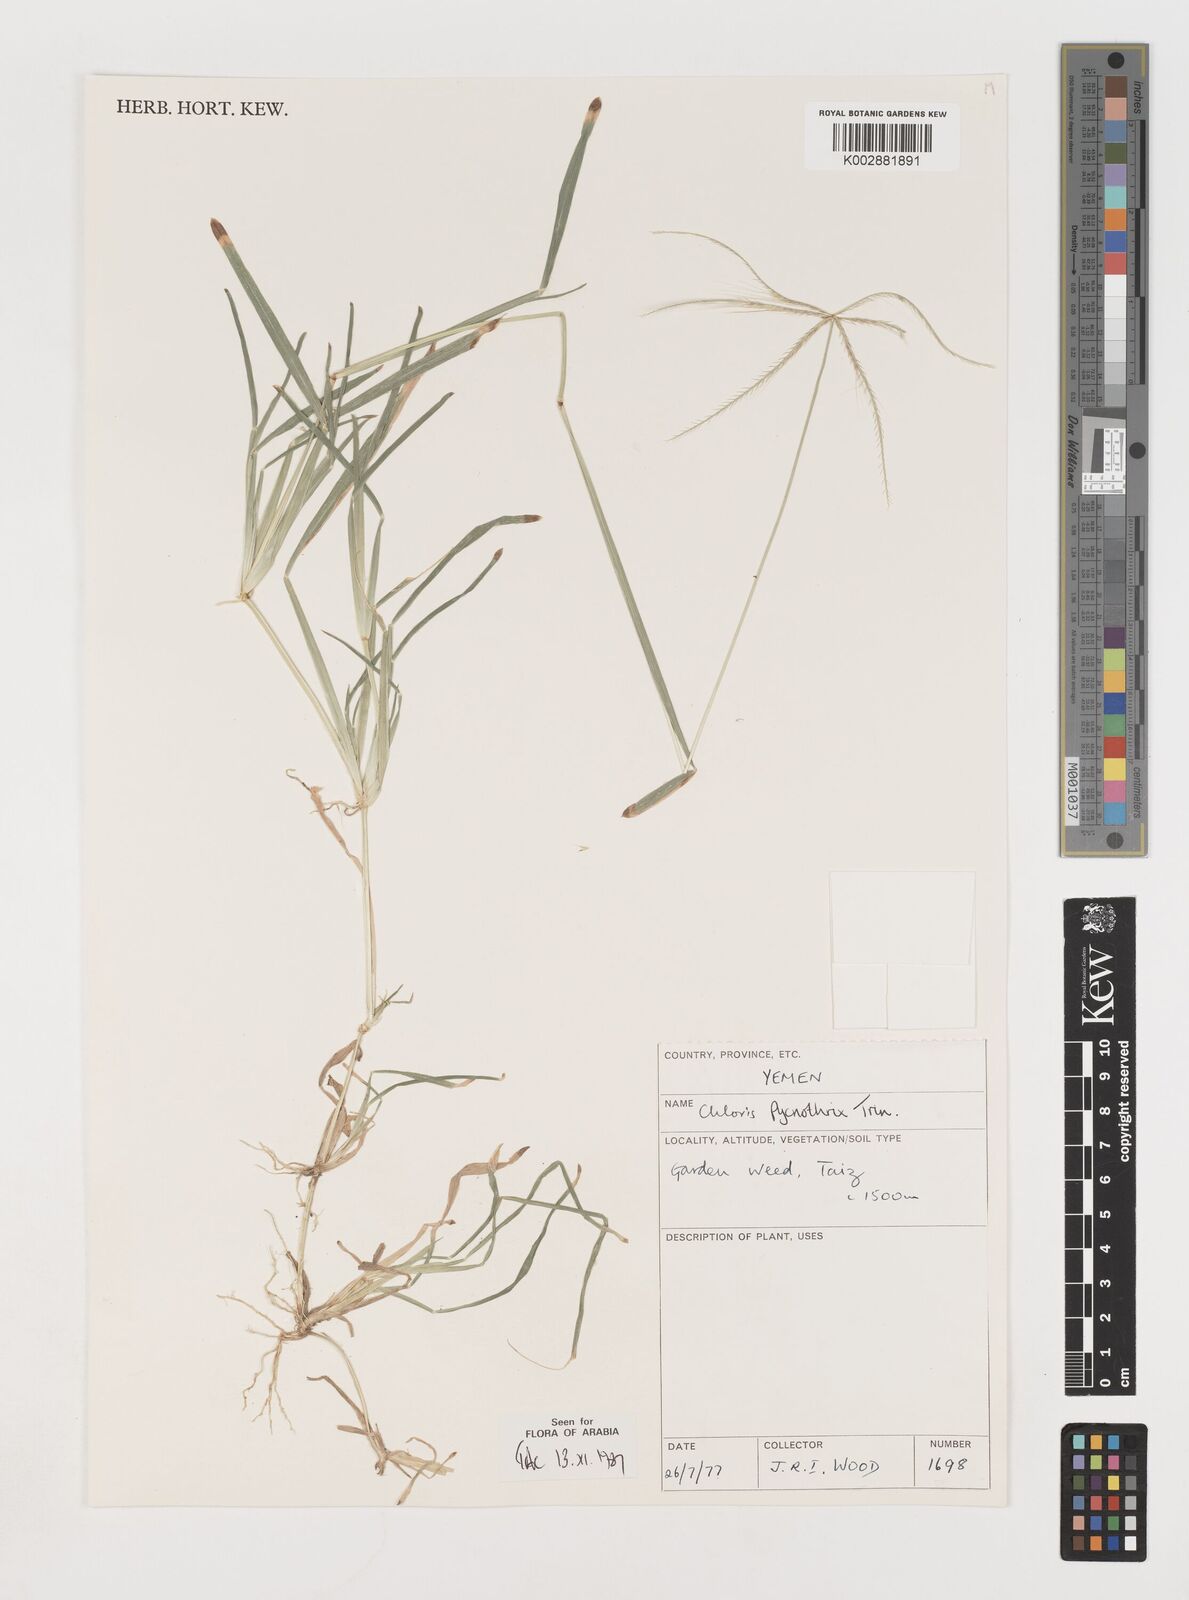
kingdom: Plantae
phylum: Tracheophyta
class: Liliopsida
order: Poales
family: Poaceae
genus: Chloris
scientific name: Chloris pycnothrix
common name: Spiderweb chloris
